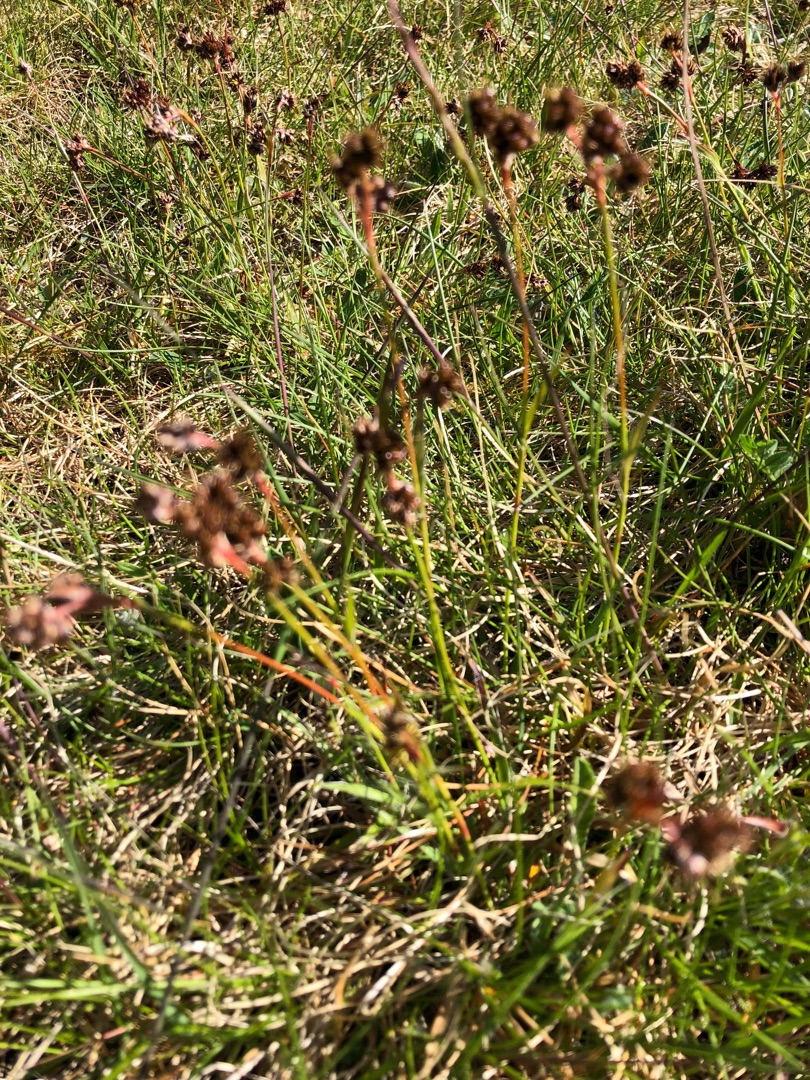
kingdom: Plantae
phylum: Tracheophyta
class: Liliopsida
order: Poales
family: Juncaceae
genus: Luzula
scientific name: Luzula campestris
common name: Mark-frytle
